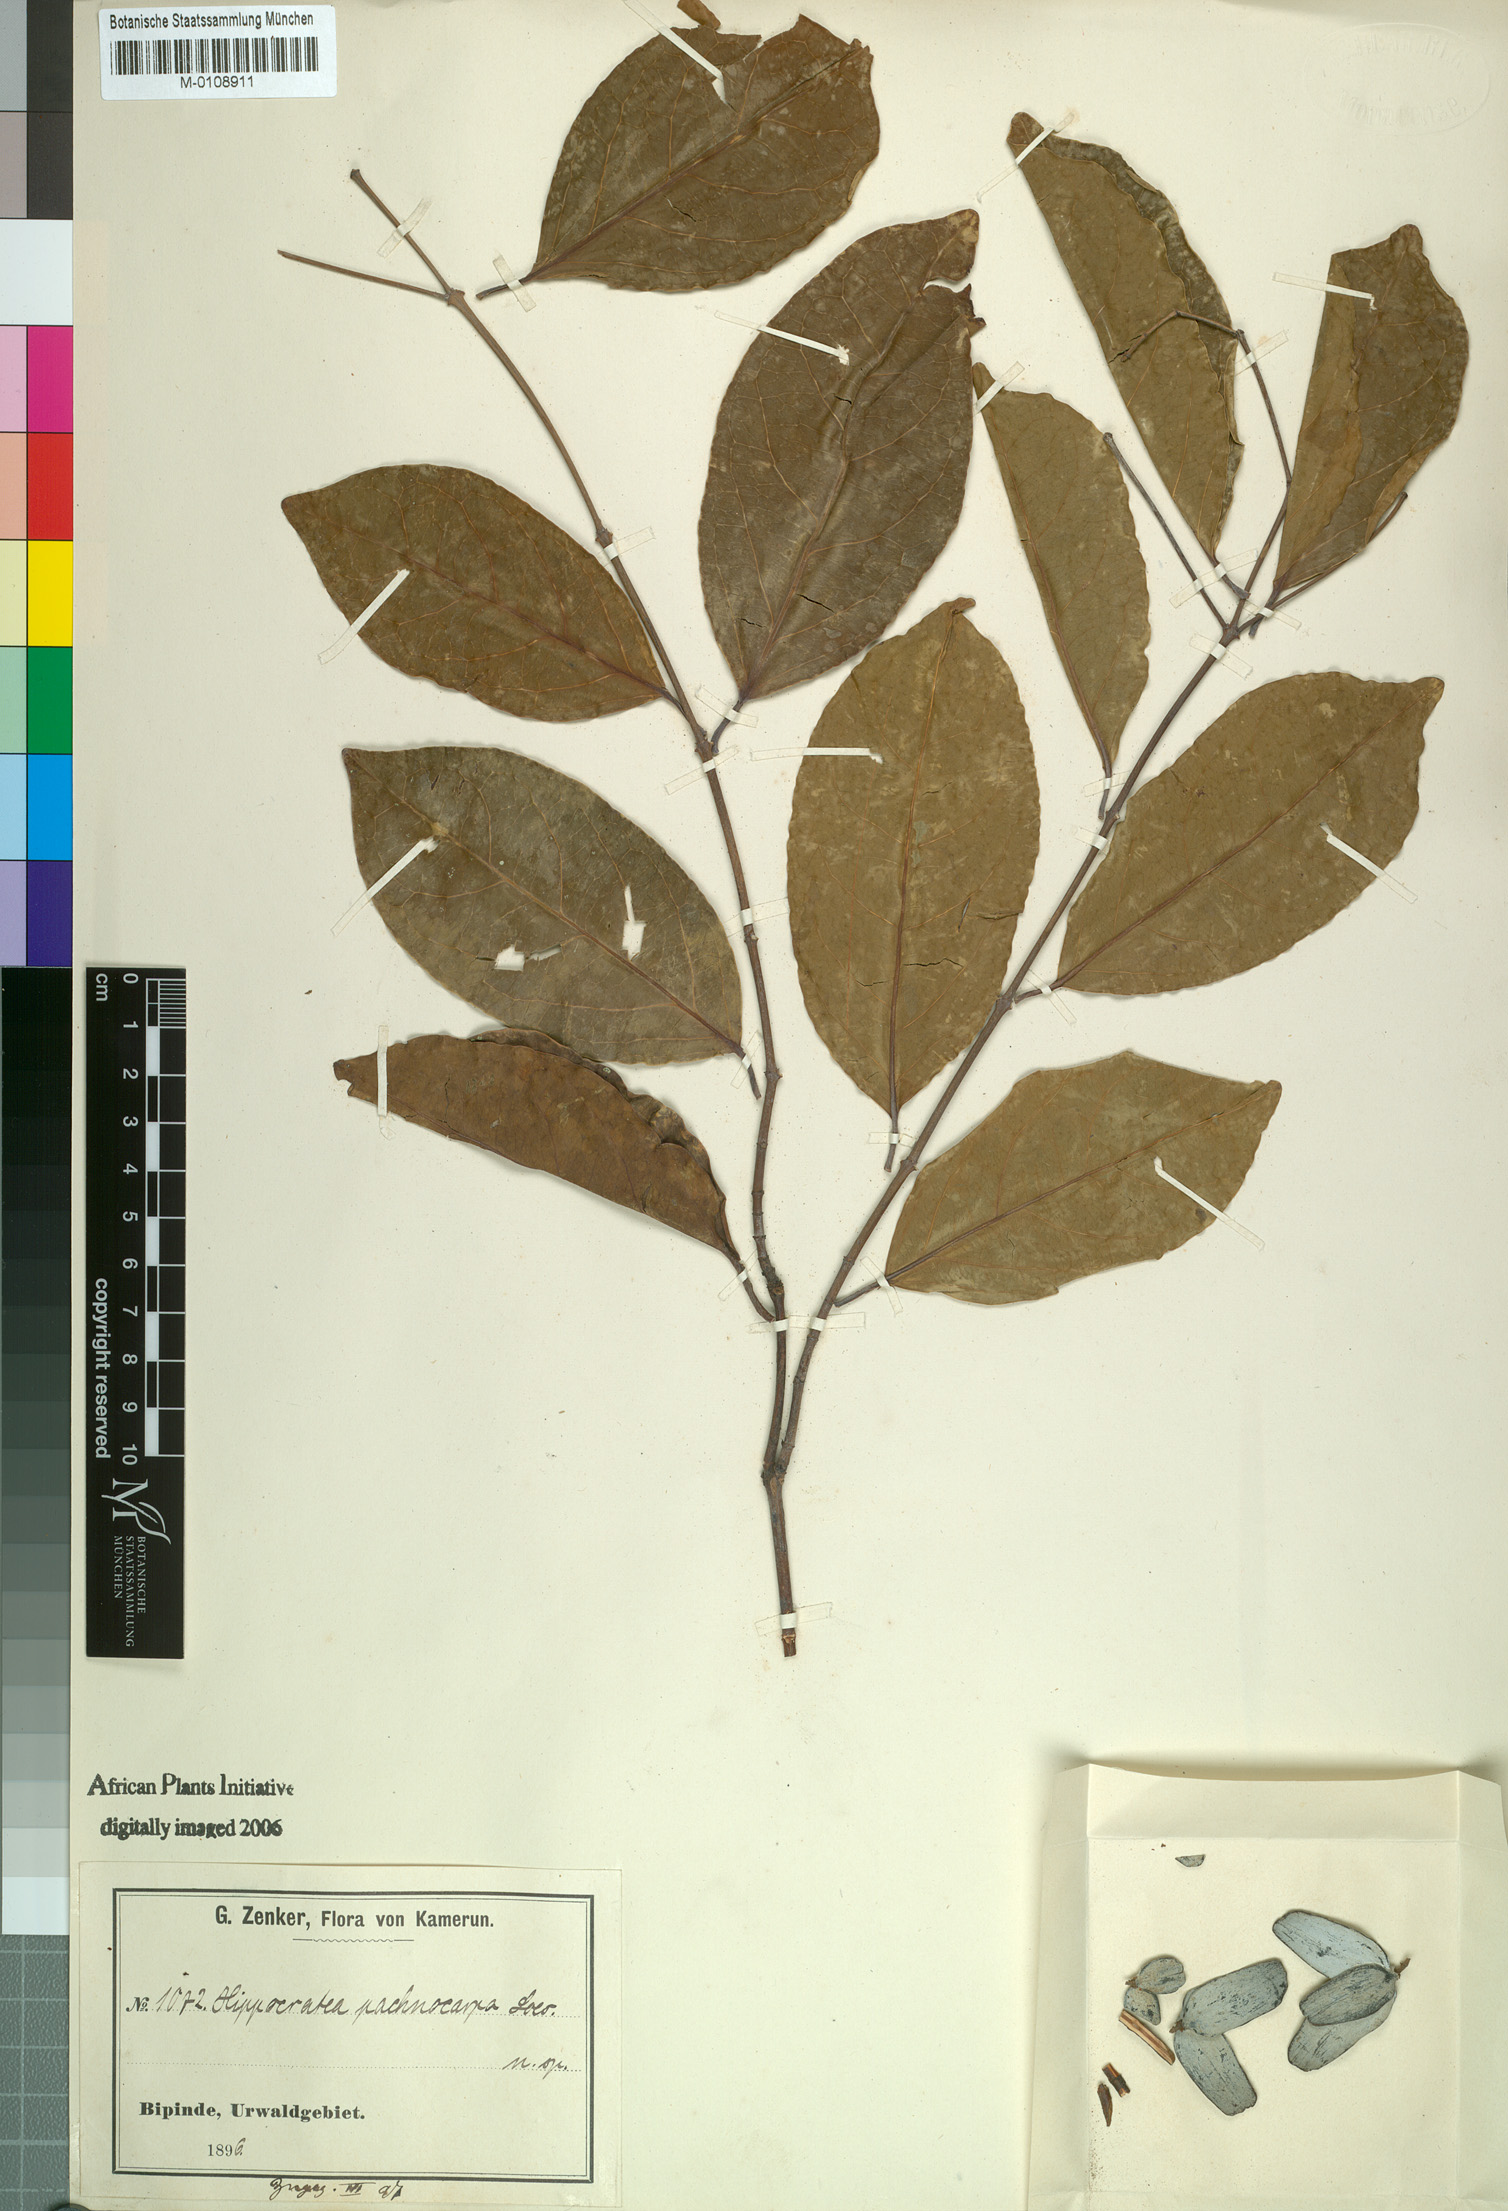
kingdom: Plantae
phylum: Tracheophyta
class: Magnoliopsida
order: Celastrales
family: Celastraceae
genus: Hippocratea
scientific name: Hippocratea myriantha
